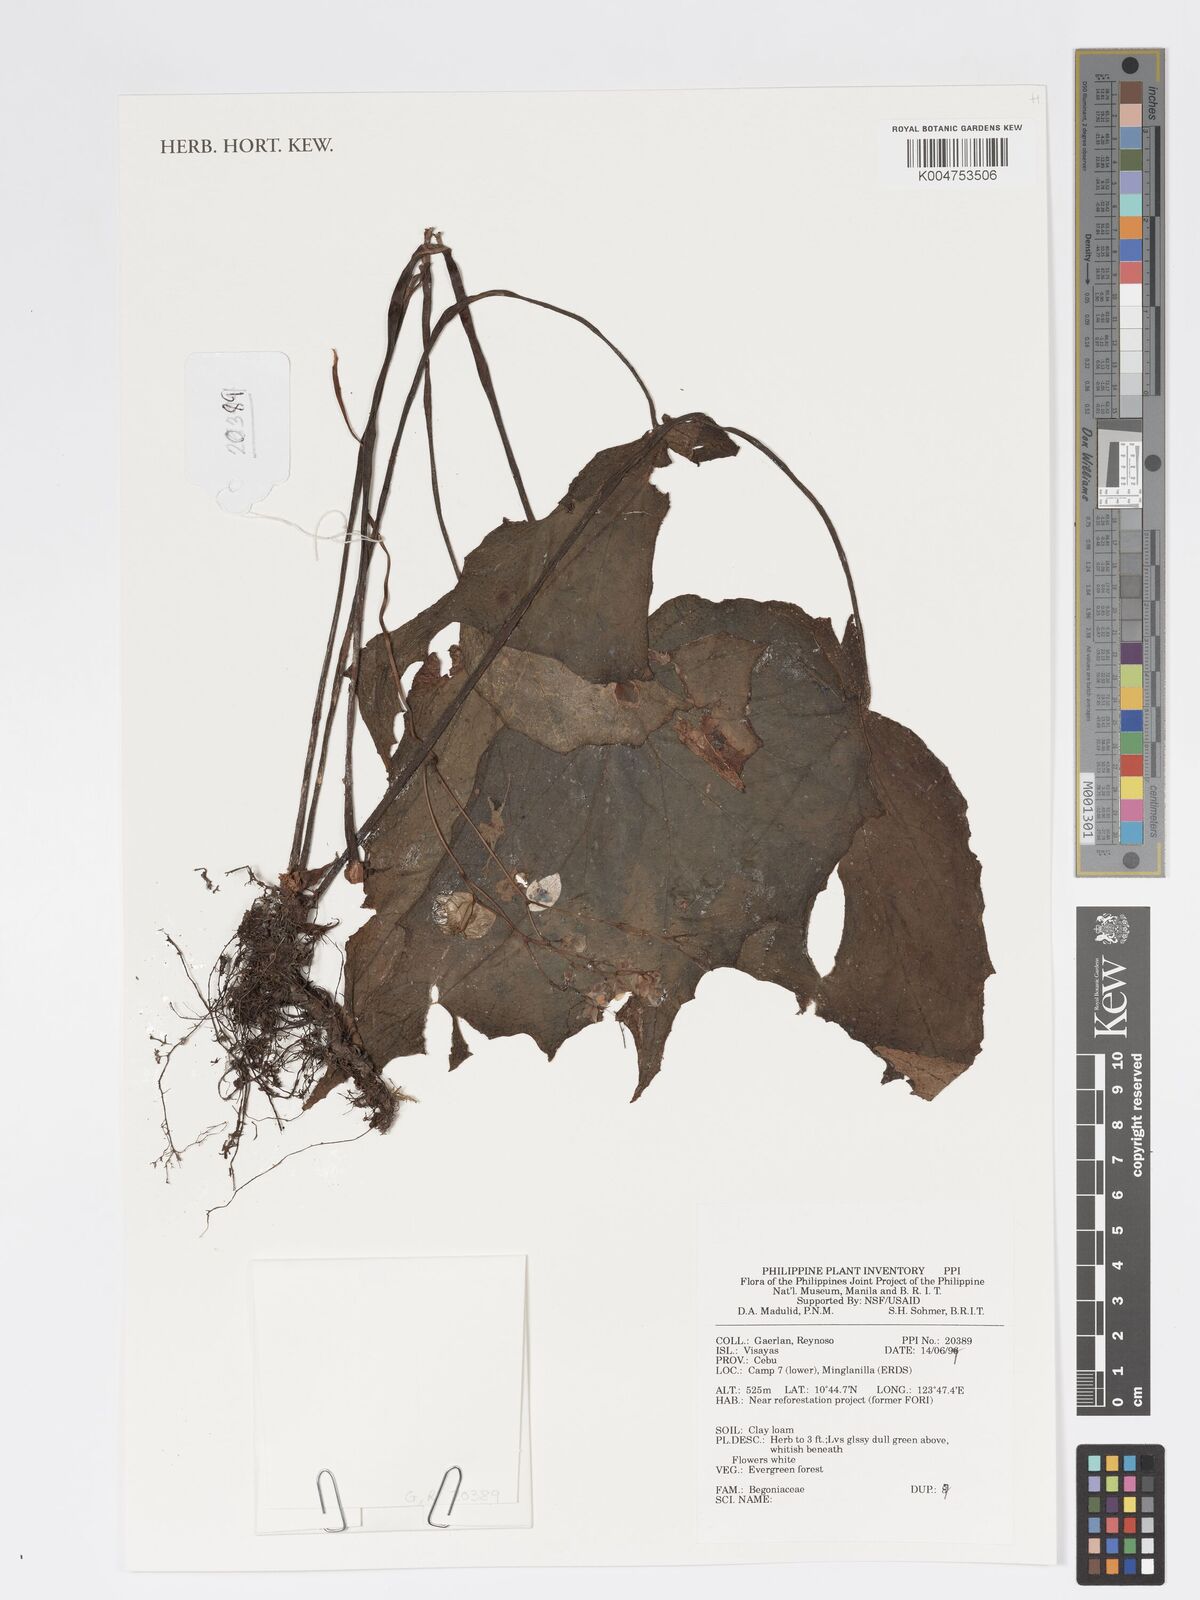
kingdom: Plantae
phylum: Tracheophyta
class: Magnoliopsida
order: Cucurbitales
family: Begoniaceae
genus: Begonia
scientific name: Begonia
